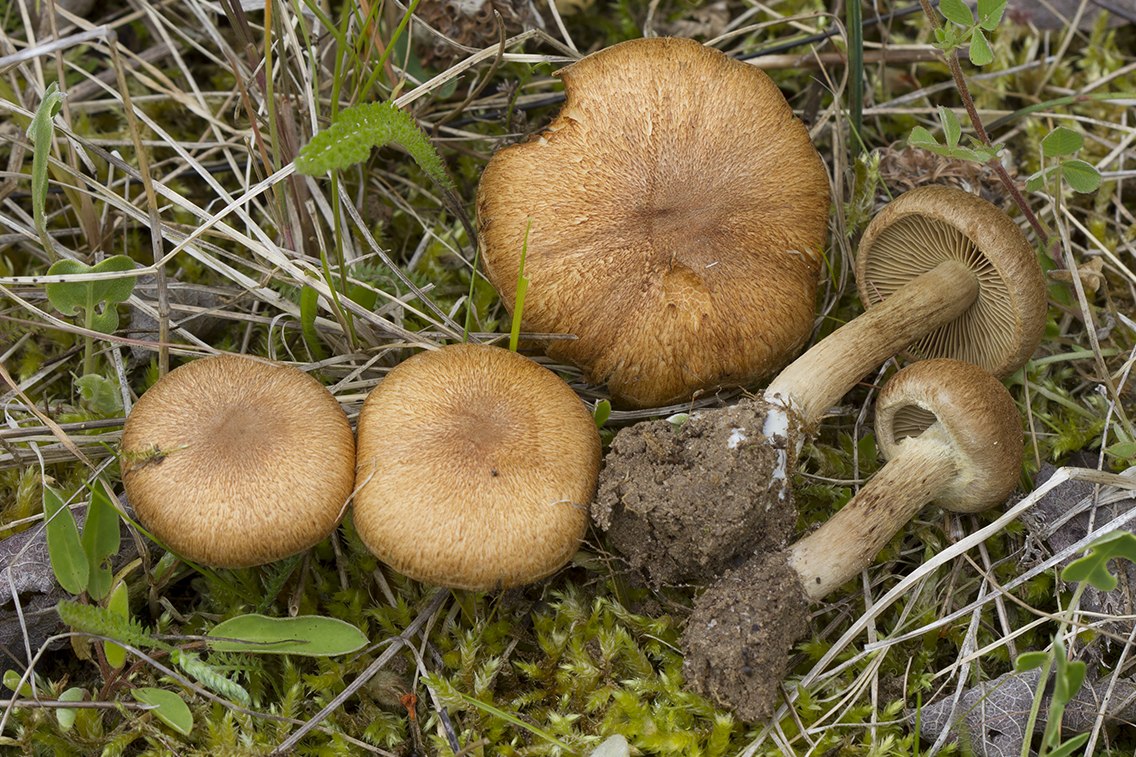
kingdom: Fungi
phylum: Basidiomycota
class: Agaricomycetes
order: Agaricales
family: Inocybaceae
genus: Mallocybe
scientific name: Mallocybe plebeia
